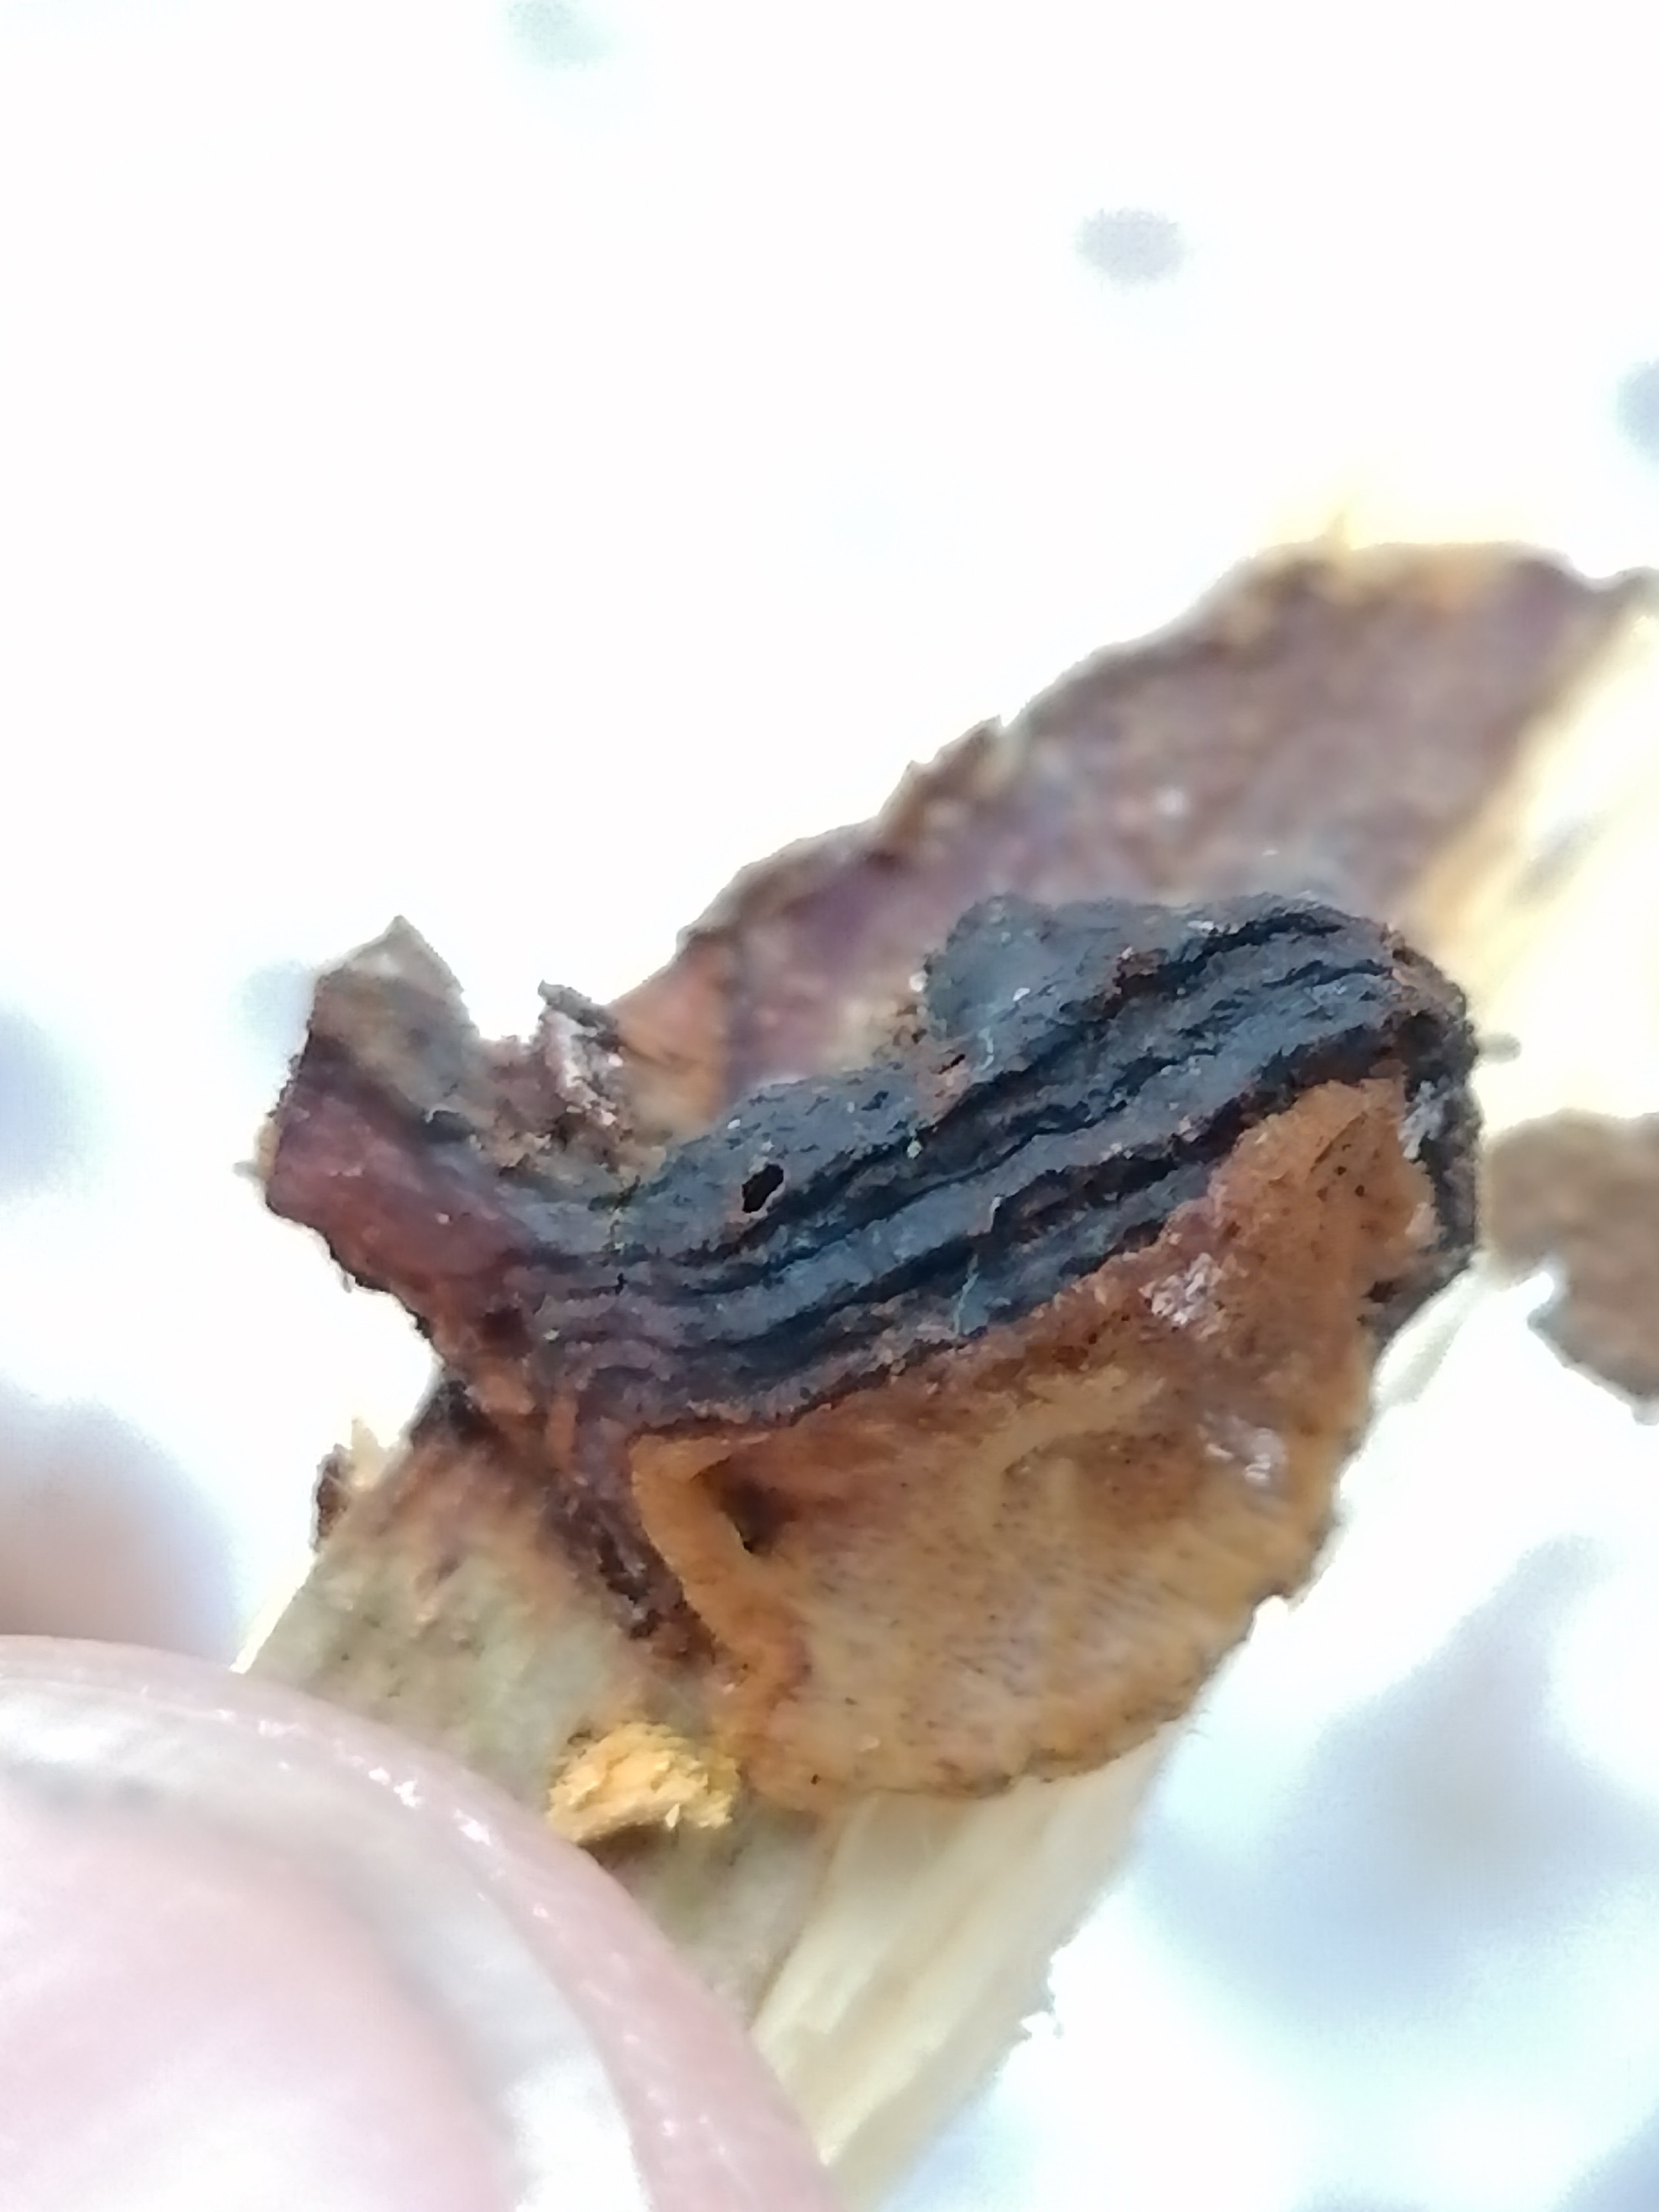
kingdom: Fungi
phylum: Basidiomycota
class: Agaricomycetes
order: Hymenochaetales
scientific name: Hymenochaetales
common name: børstesvampordenen
